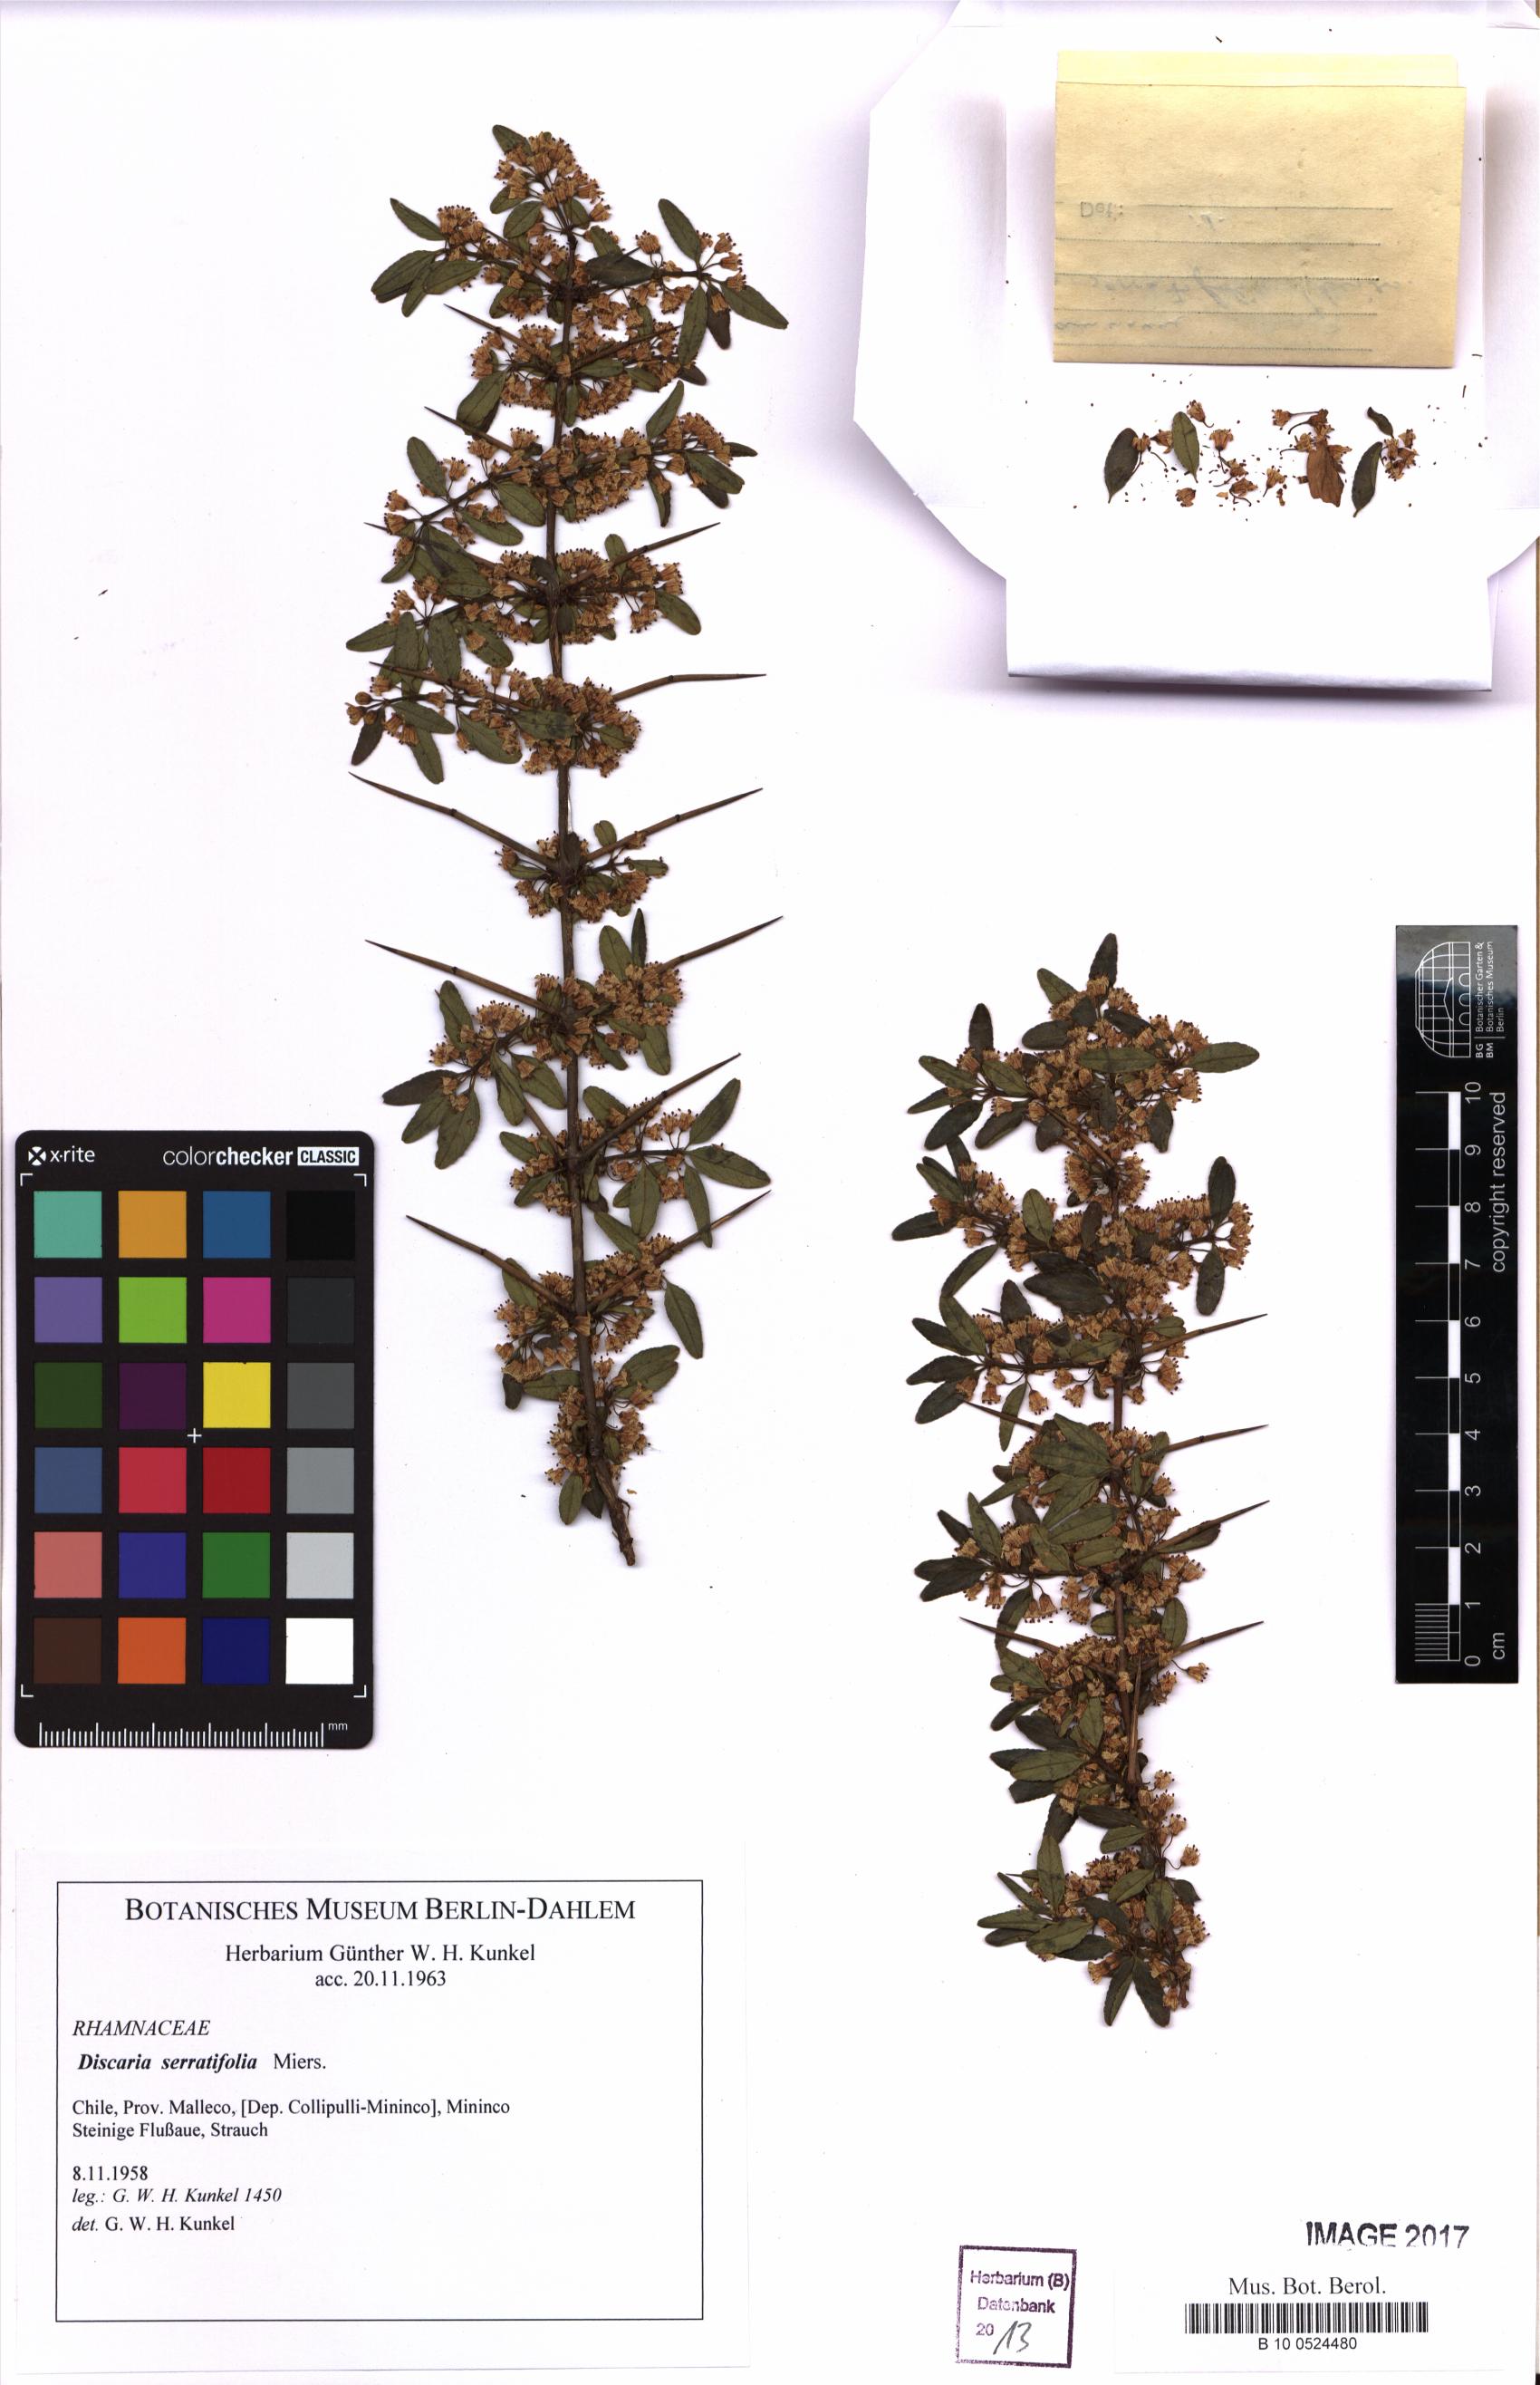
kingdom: Plantae
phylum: Tracheophyta
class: Magnoliopsida
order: Rosales
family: Rhamnaceae
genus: Discaria
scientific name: Discaria serratifolia
